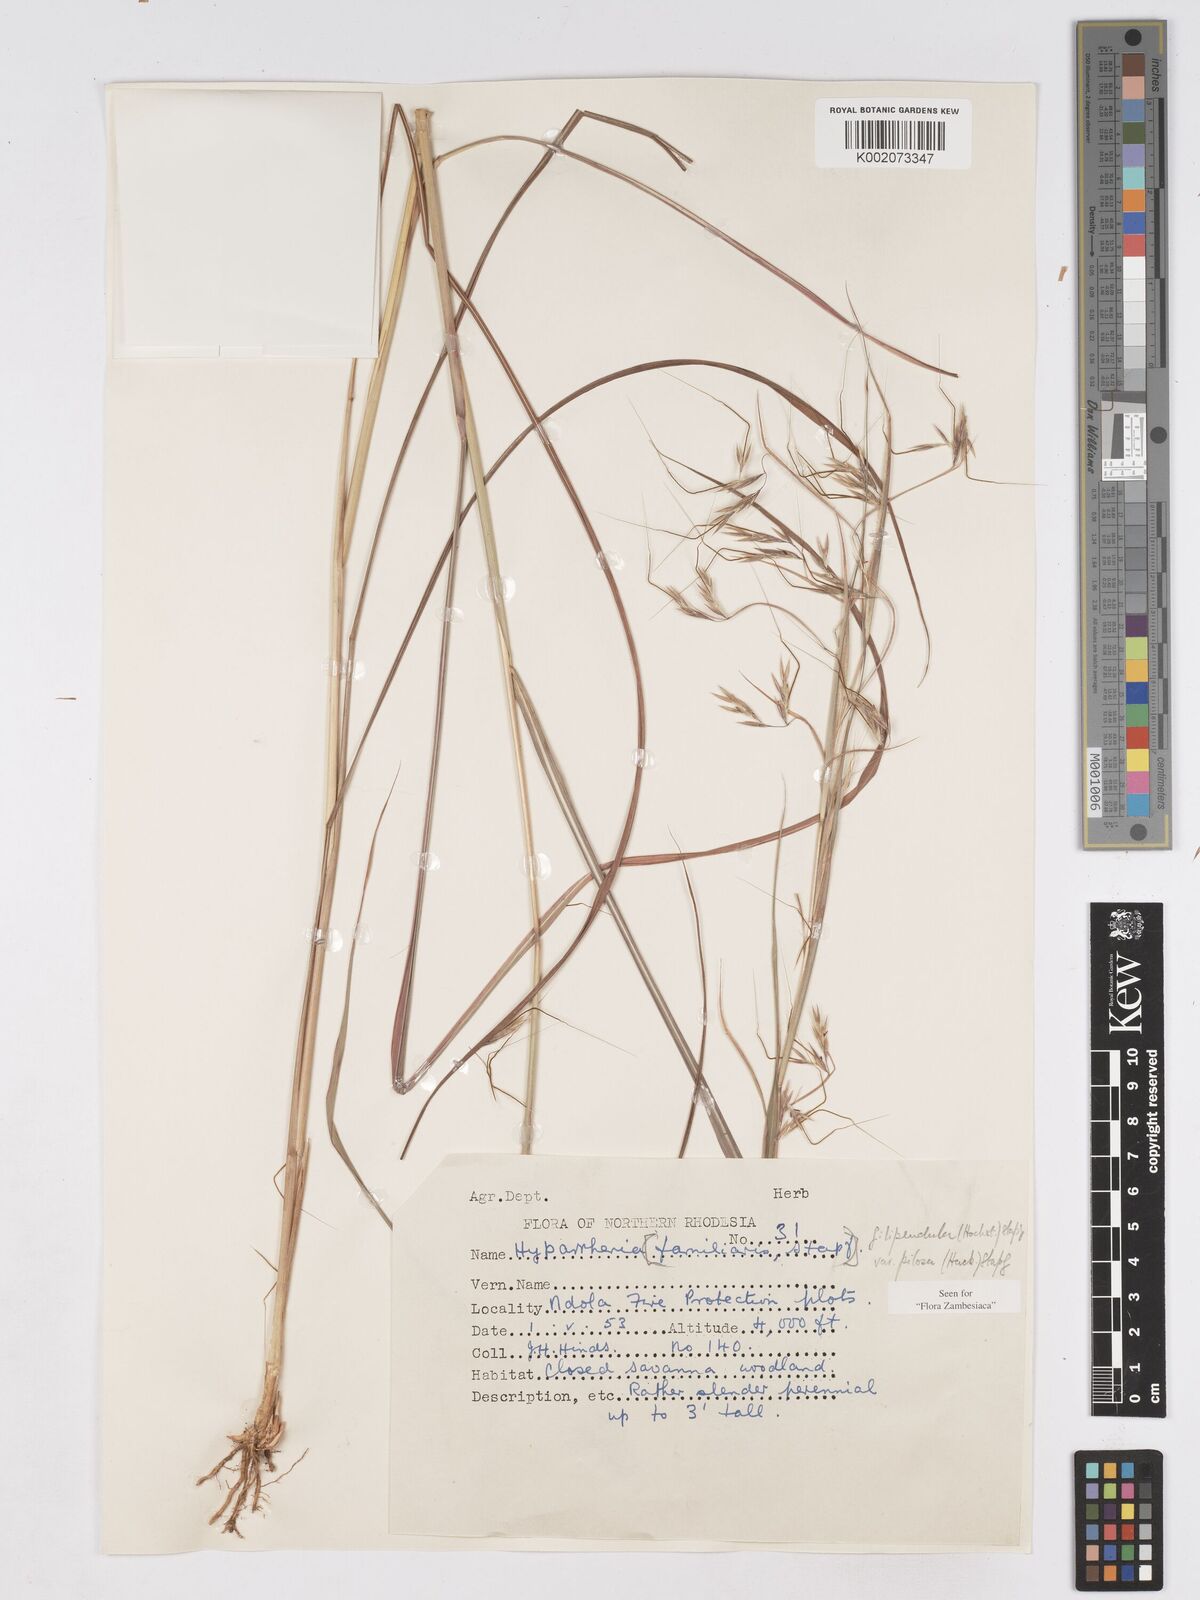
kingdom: Plantae
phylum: Tracheophyta
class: Liliopsida
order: Poales
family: Poaceae
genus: Hyparrhenia
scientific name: Hyparrhenia filipendula
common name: Tambookie grass
